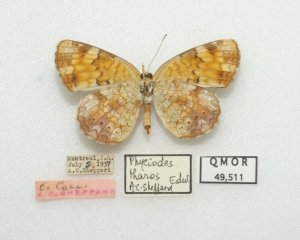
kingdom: Animalia
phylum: Arthropoda
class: Insecta
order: Lepidoptera
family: Nymphalidae
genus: Phyciodes
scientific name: Phyciodes tharos
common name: Northern Crescent
